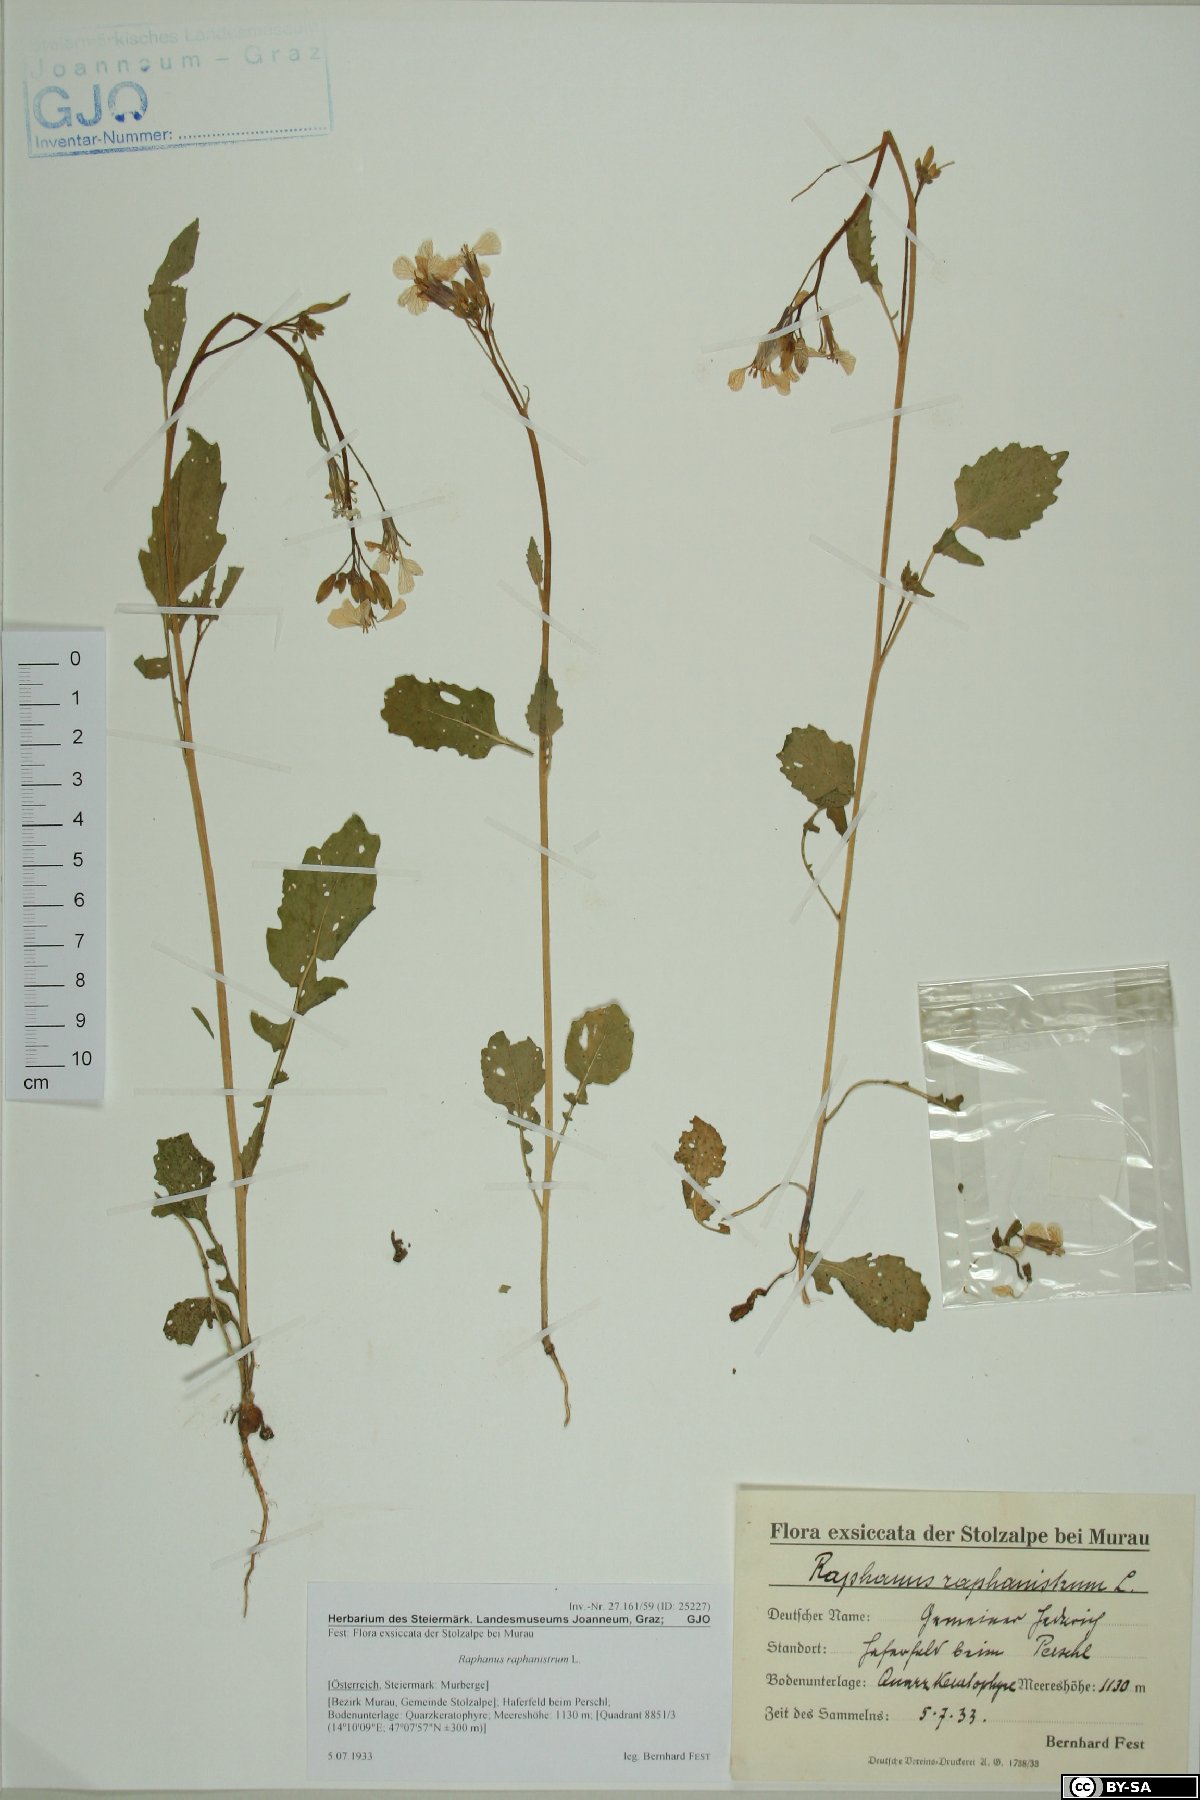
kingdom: Plantae
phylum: Tracheophyta
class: Magnoliopsida
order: Brassicales
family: Brassicaceae
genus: Raphanus
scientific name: Raphanus raphanistrum
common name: Wild radish
